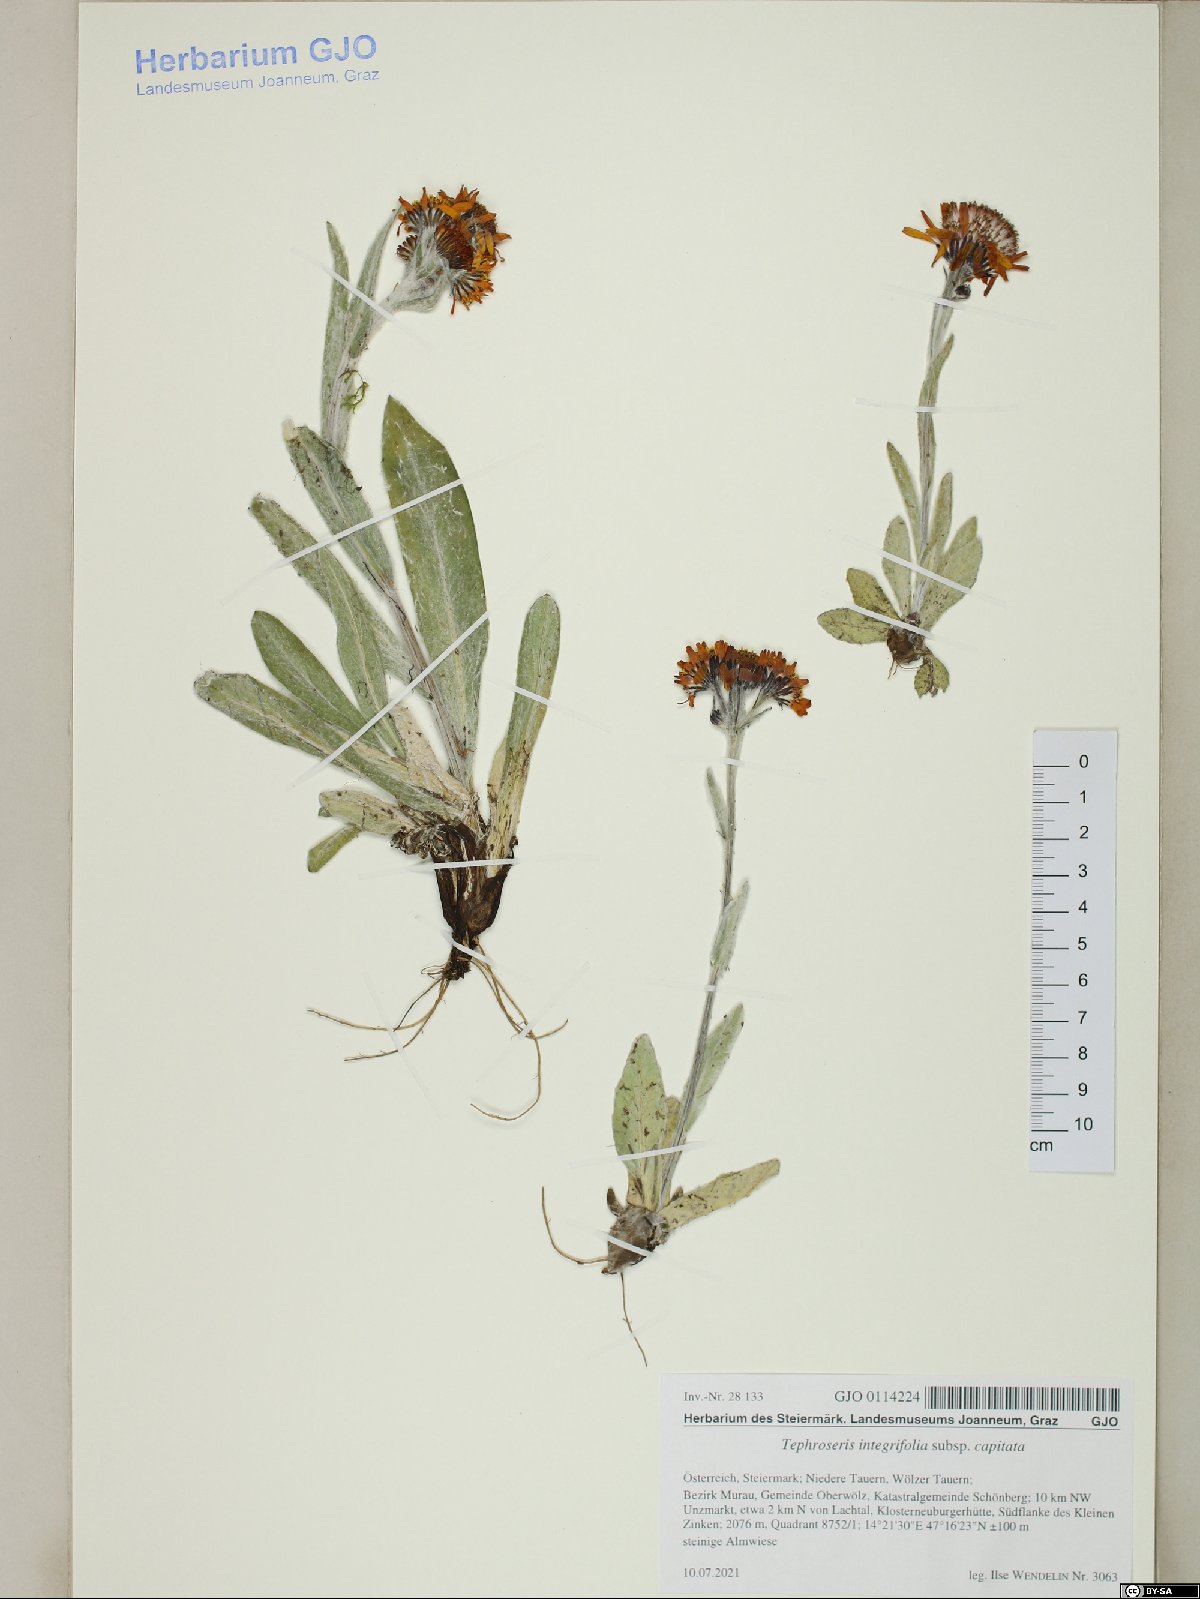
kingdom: Plantae
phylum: Tracheophyta
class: Magnoliopsida
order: Asterales
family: Asteraceae
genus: Tephroseris
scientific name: Tephroseris integrifolia
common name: Field fleawort
